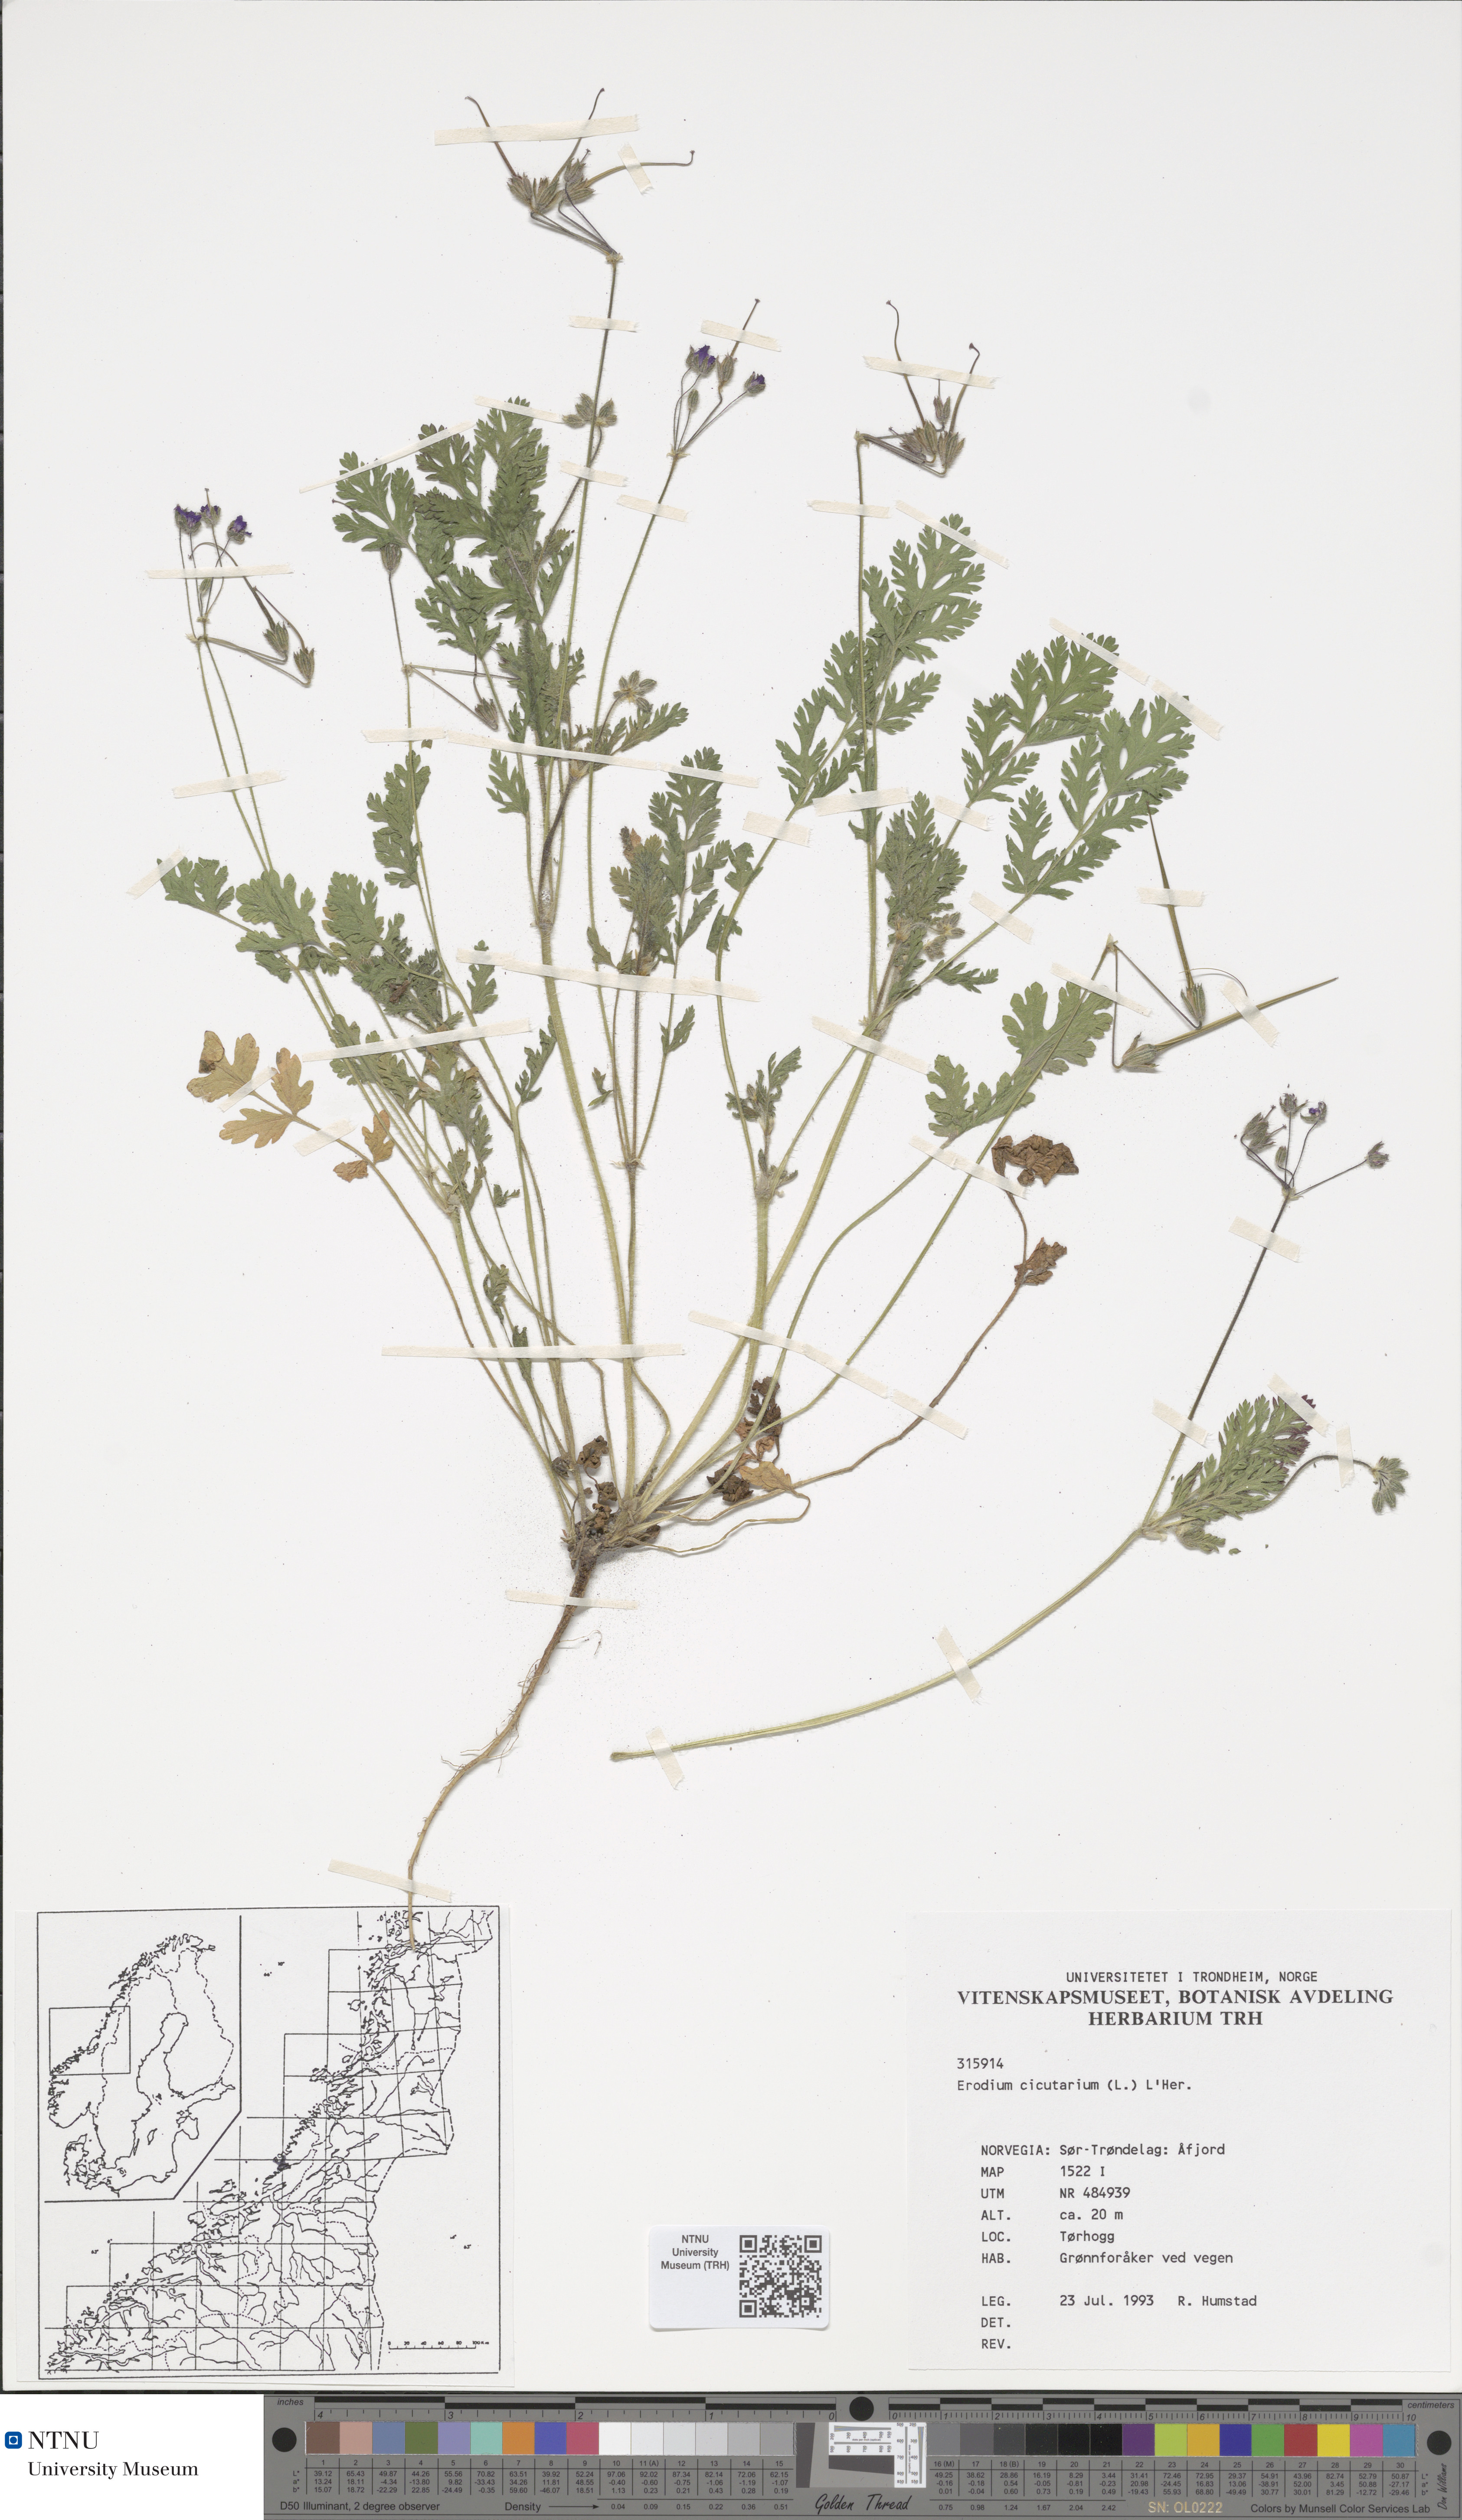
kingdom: Plantae
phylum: Tracheophyta
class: Magnoliopsida
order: Geraniales
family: Geraniaceae
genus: Erodium
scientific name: Erodium cicutarium
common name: Common stork's-bill
